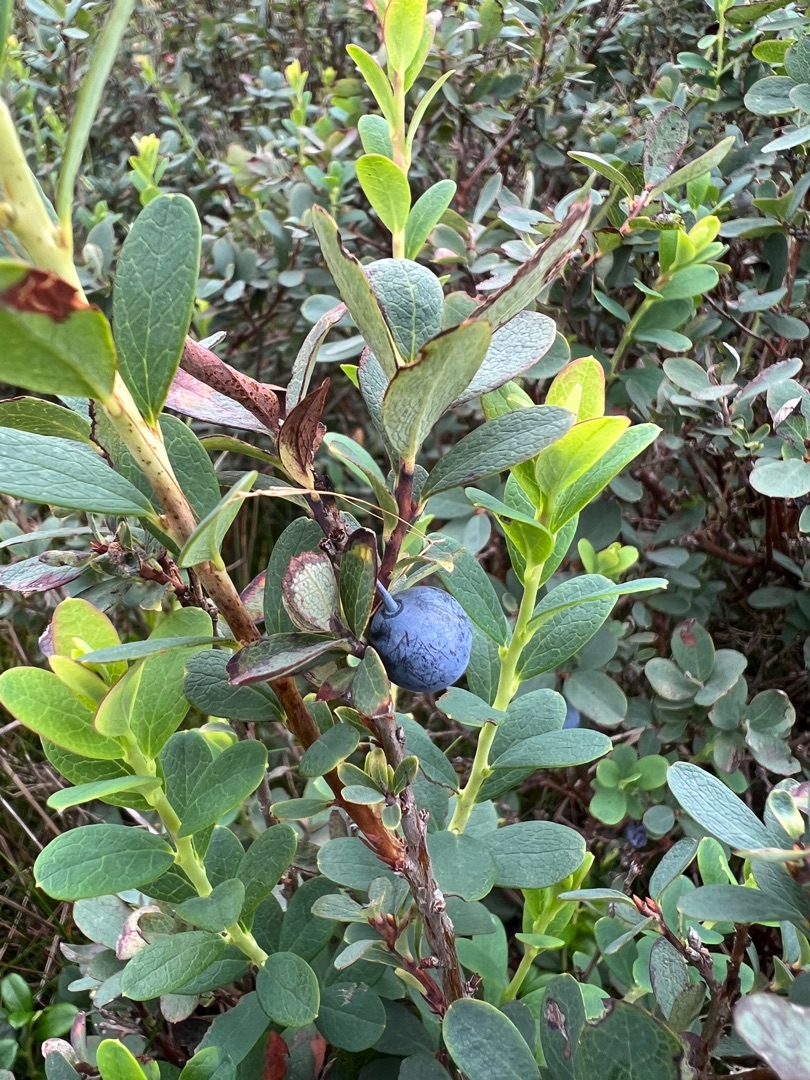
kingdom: Plantae
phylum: Tracheophyta
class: Magnoliopsida
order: Ericales
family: Ericaceae
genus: Vaccinium
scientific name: Vaccinium uliginosum
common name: Mose-bølle
